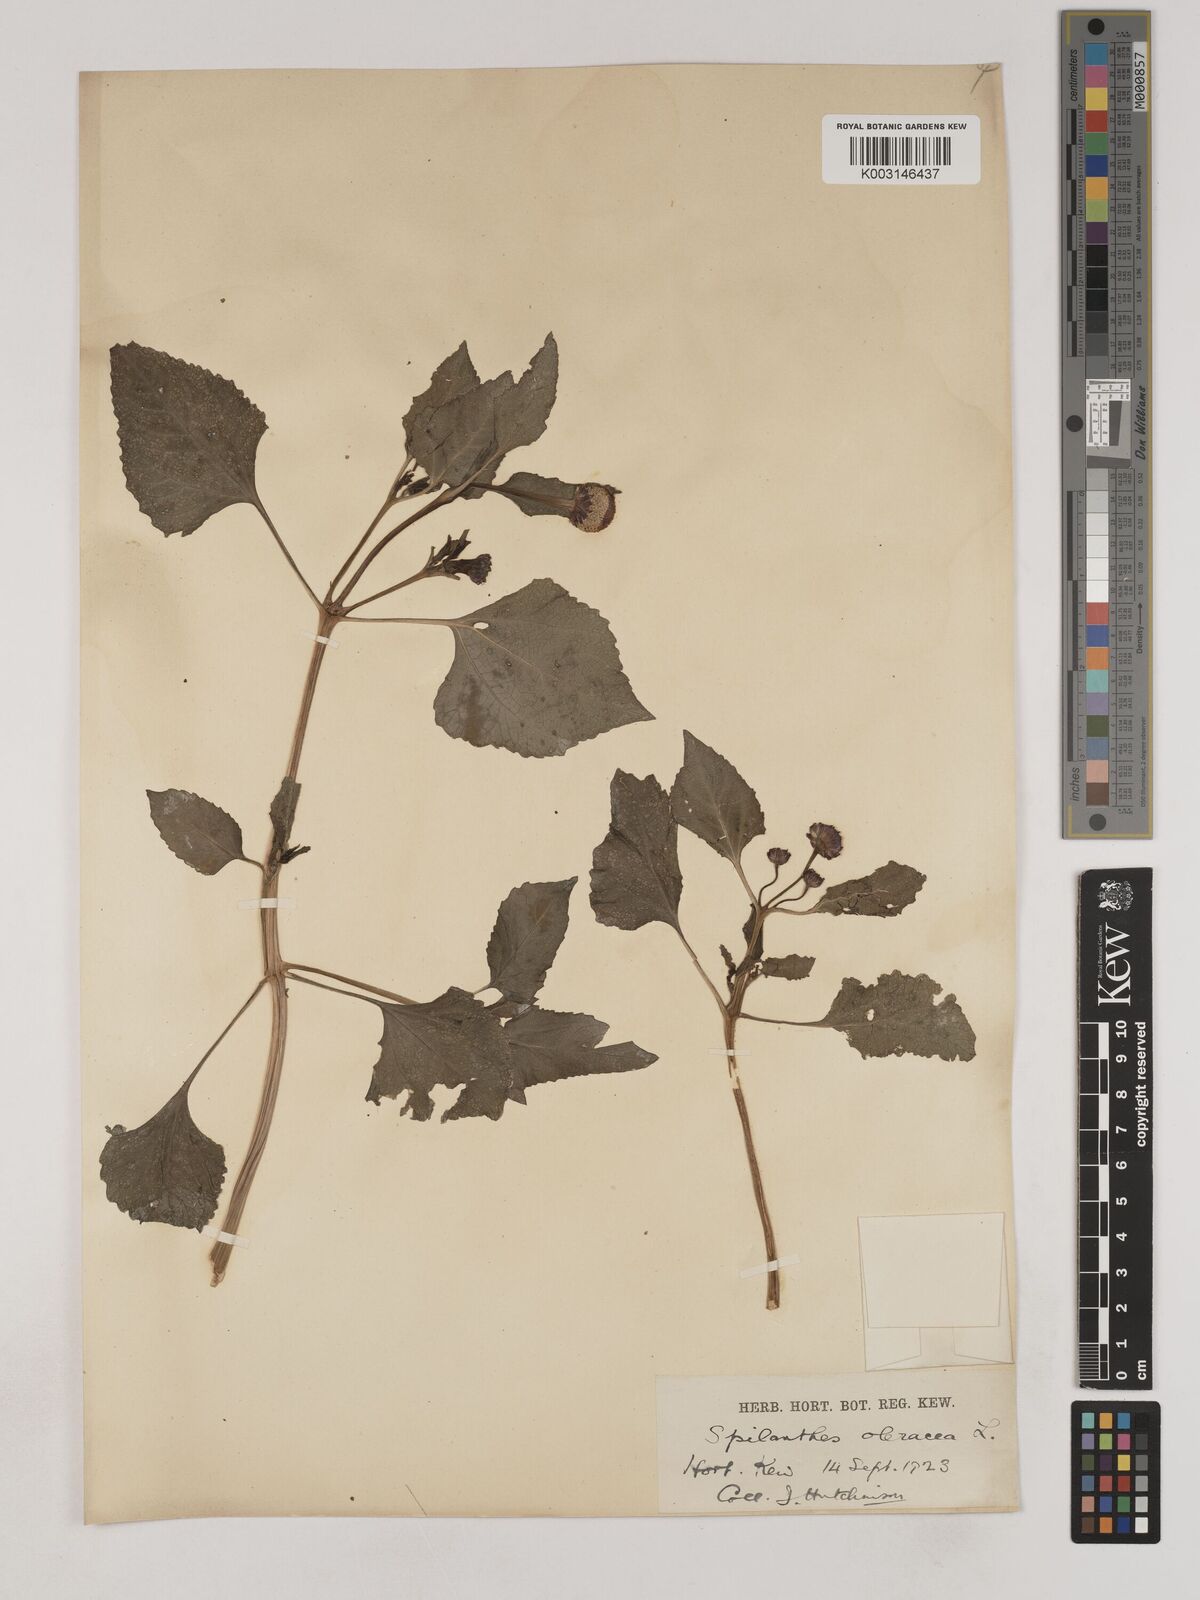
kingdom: Plantae
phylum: Tracheophyta
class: Magnoliopsida
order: Asterales
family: Asteraceae
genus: Acmella
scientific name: Acmella oleracea
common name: Brazilian cress
